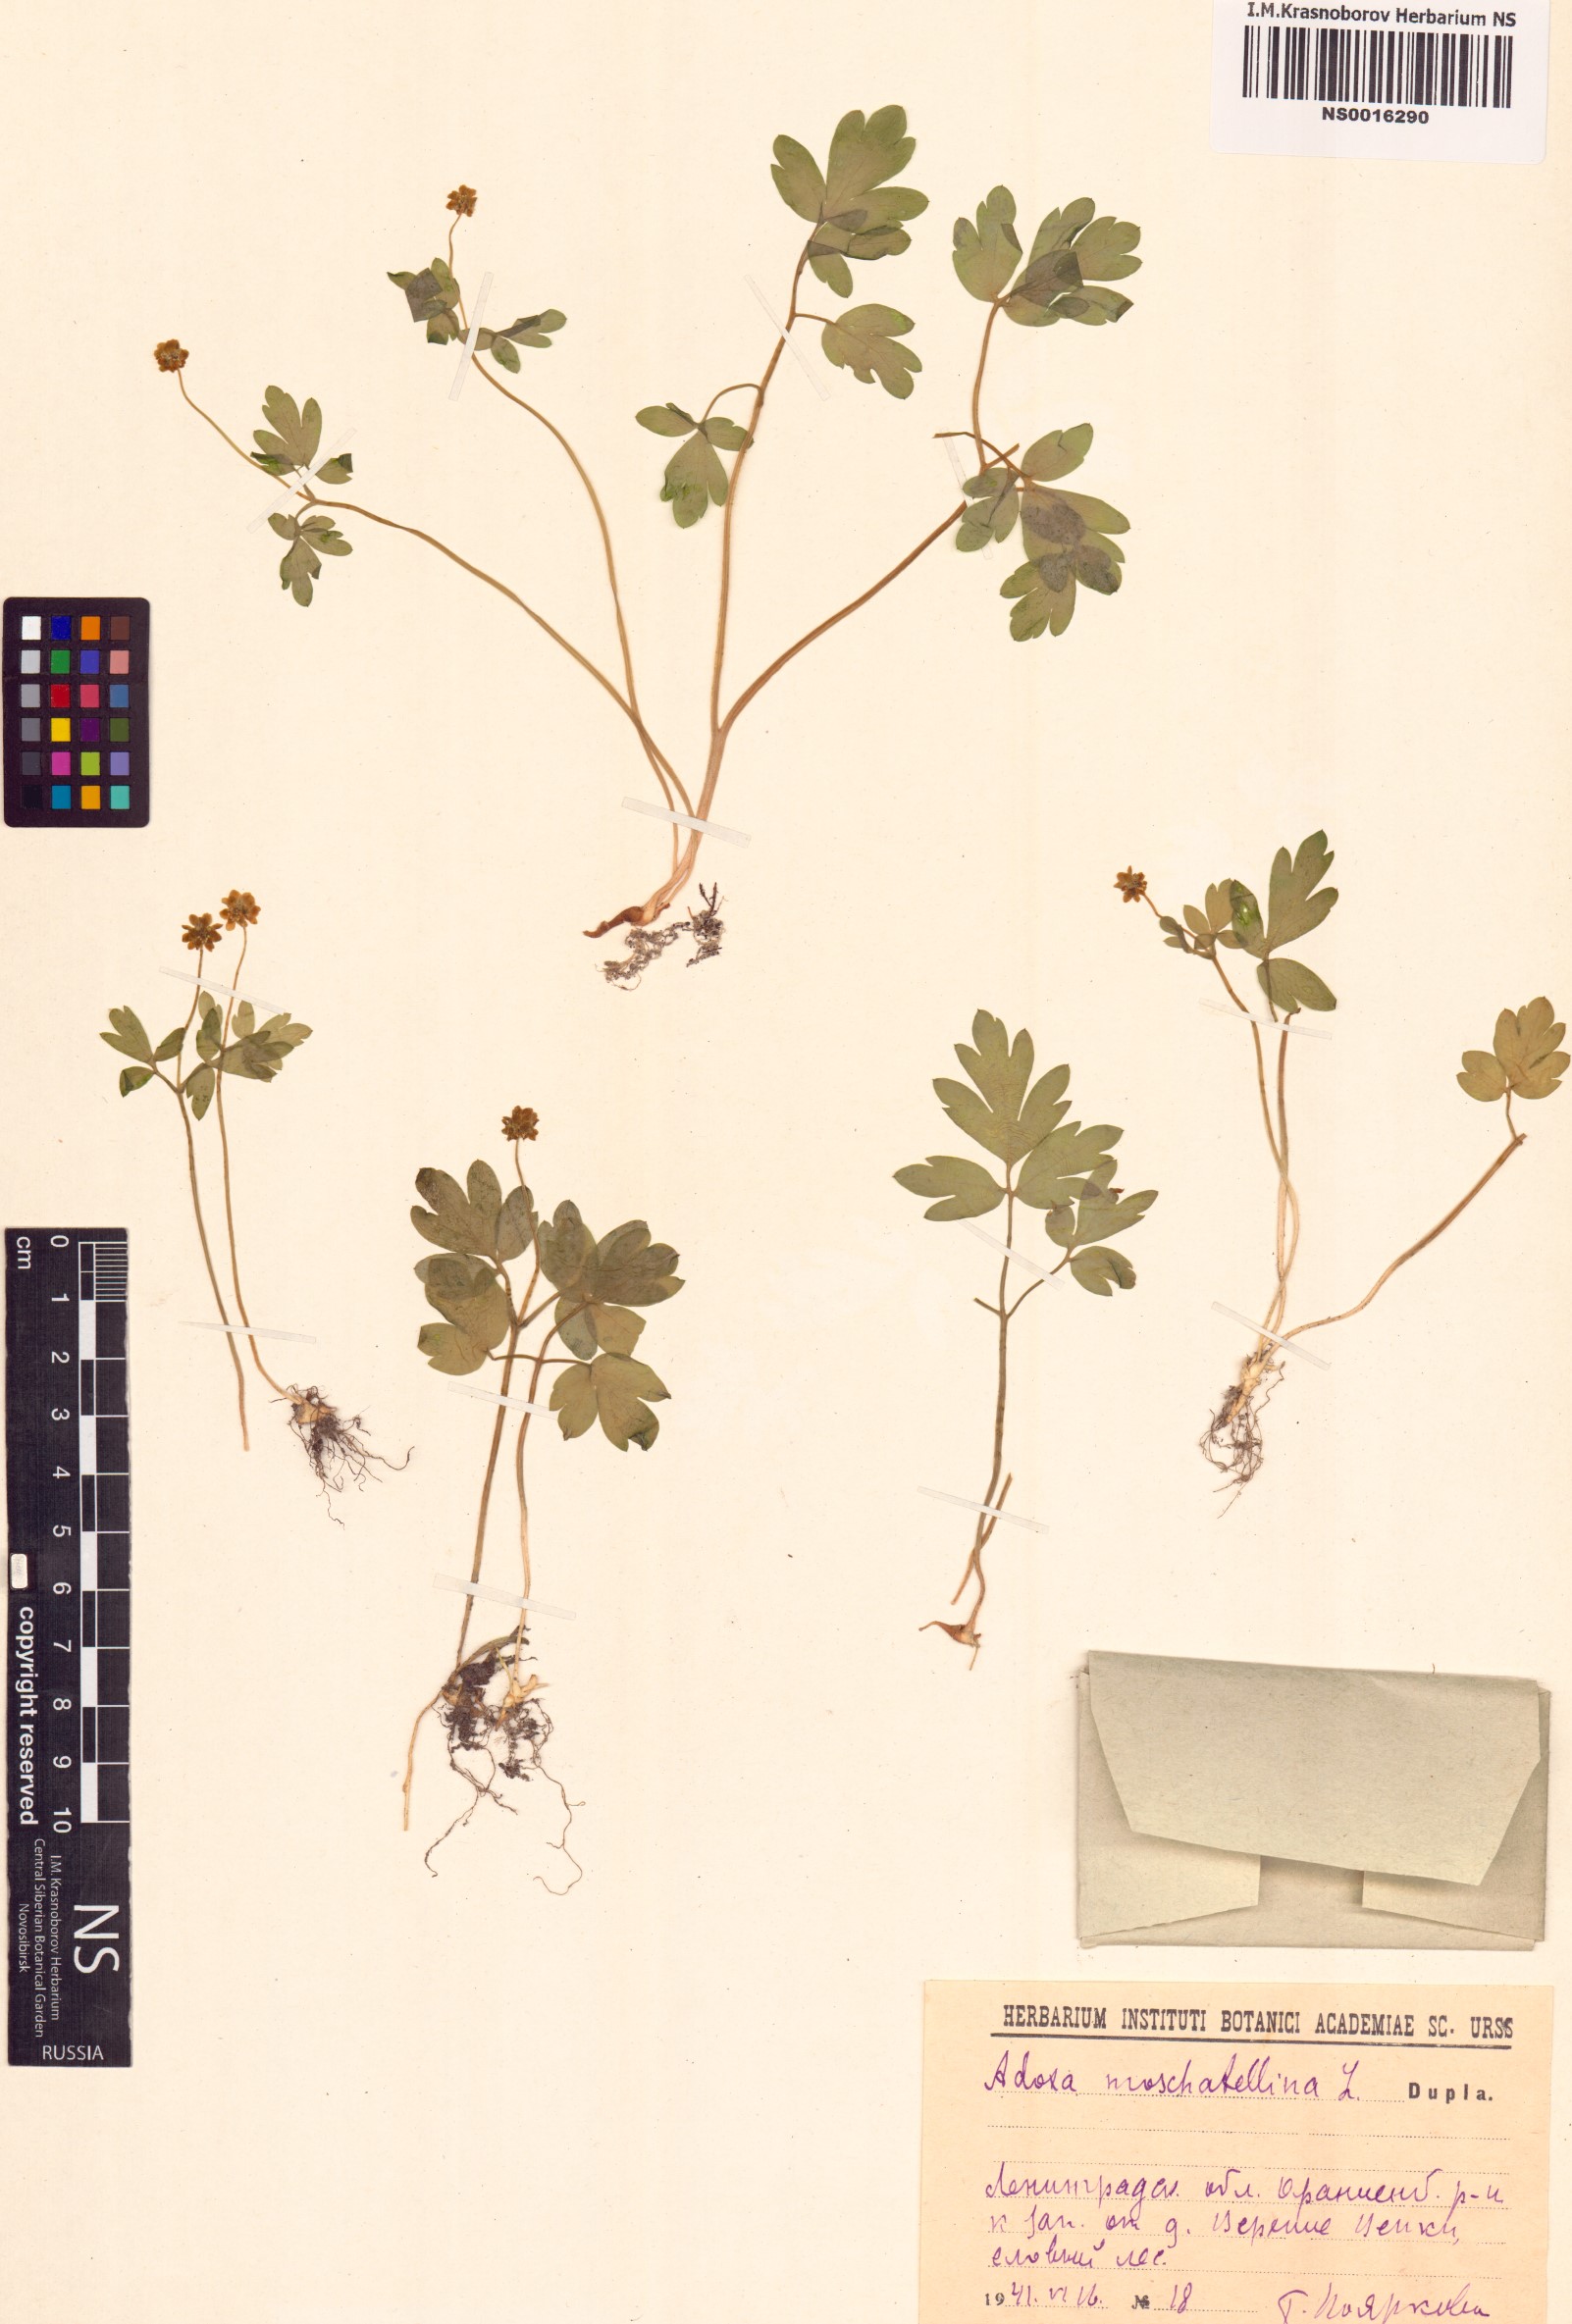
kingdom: Plantae
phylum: Tracheophyta
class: Magnoliopsida
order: Dipsacales
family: Viburnaceae
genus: Adoxa
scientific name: Adoxa moschatellina
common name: Moschatel
